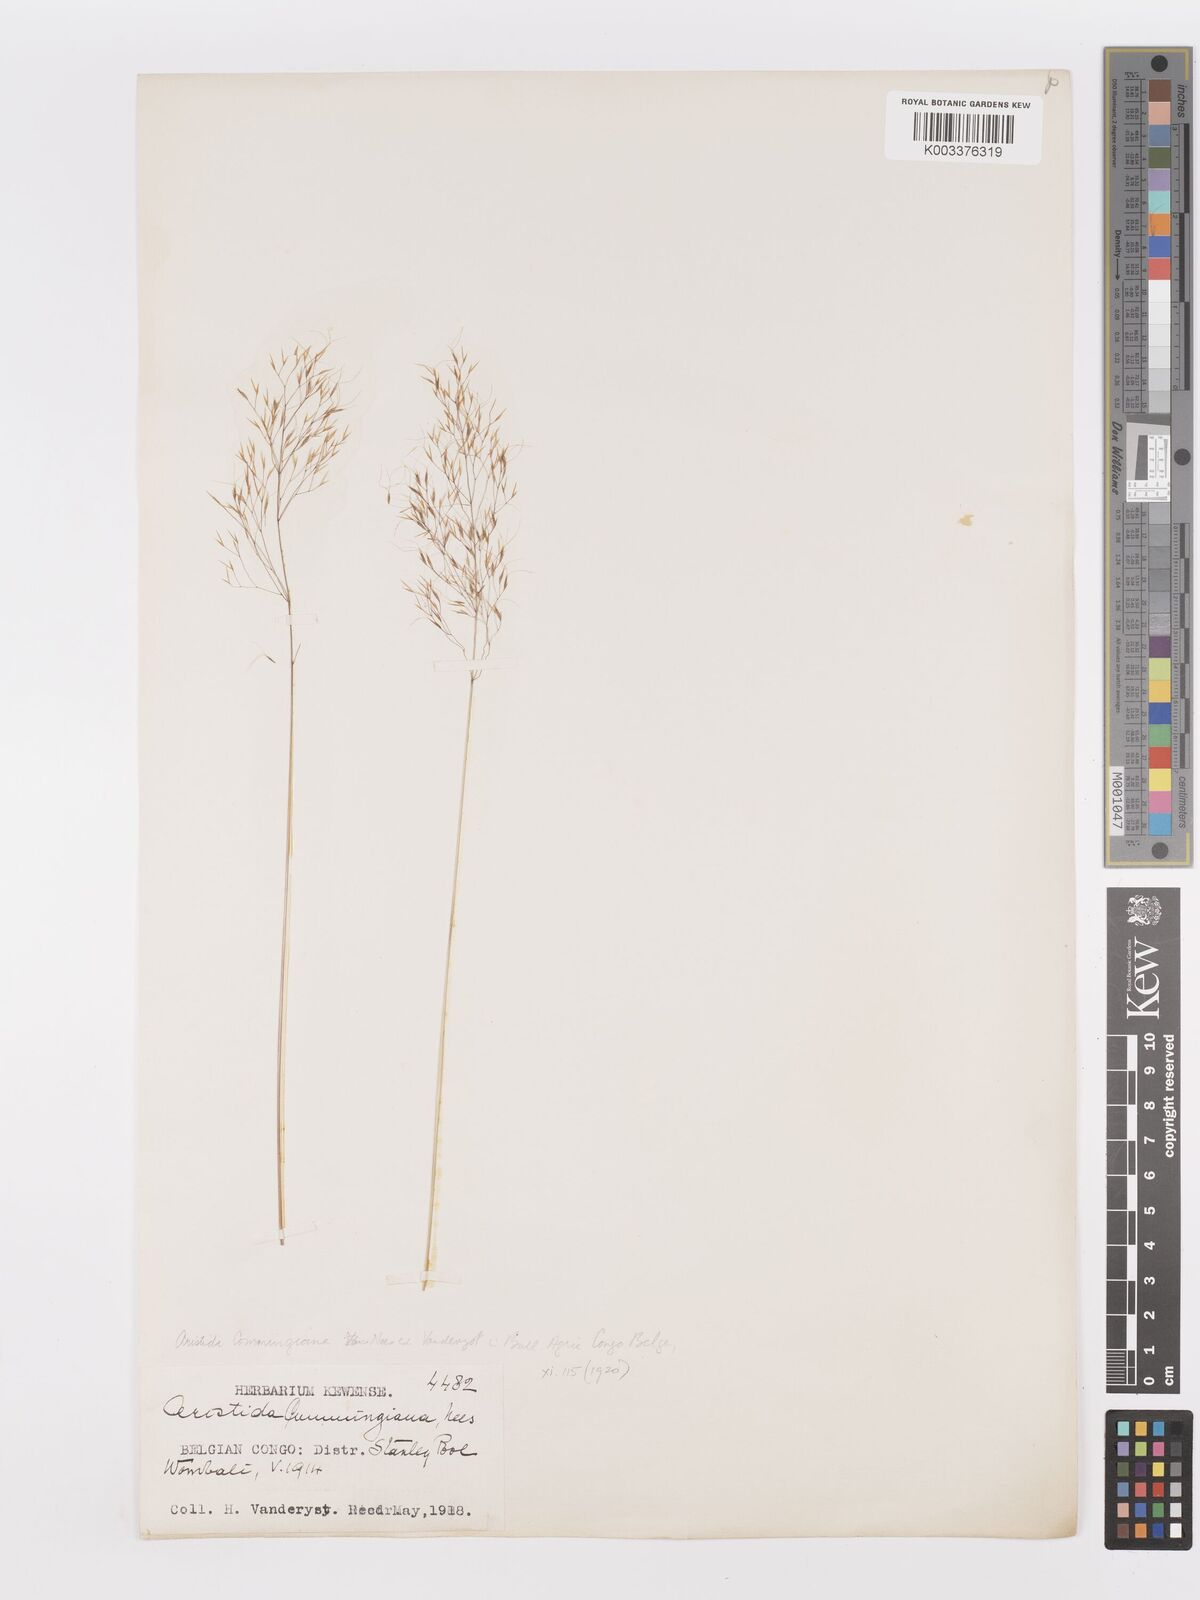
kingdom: Plantae
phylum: Tracheophyta
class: Liliopsida
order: Poales
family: Poaceae
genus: Aristida
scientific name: Aristida recta
